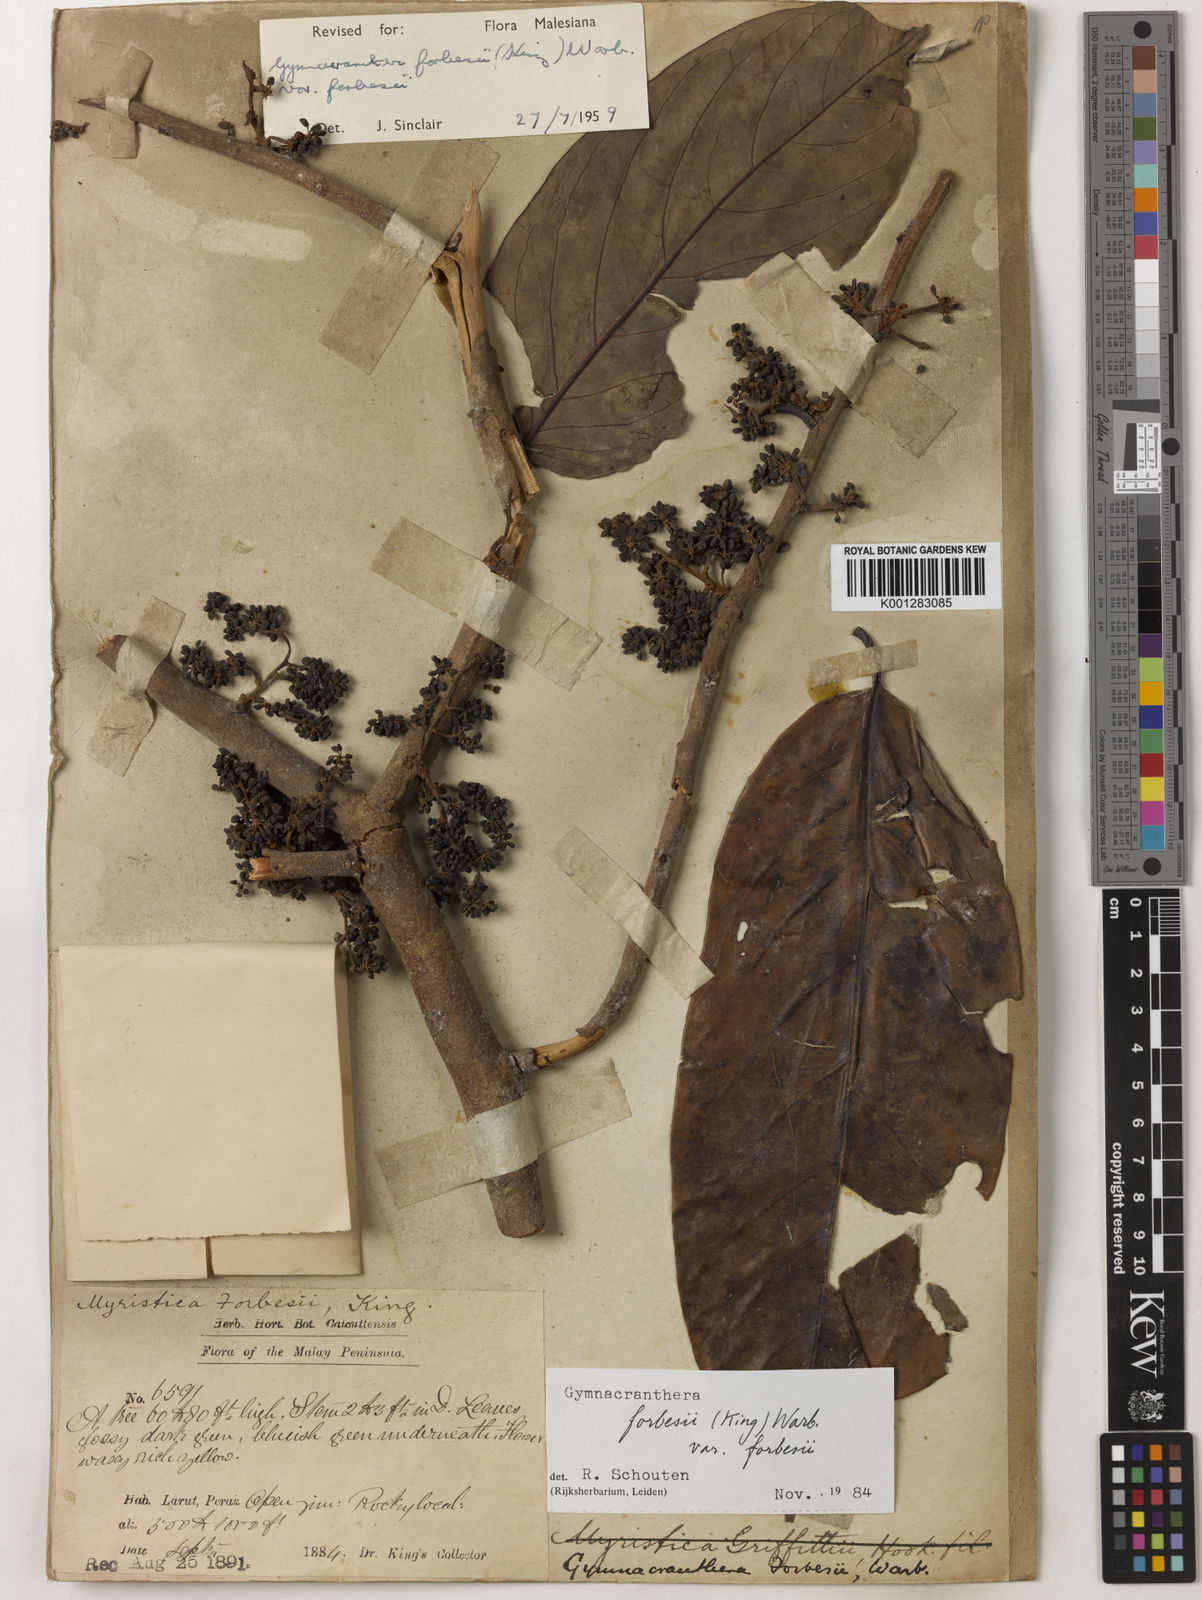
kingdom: Plantae
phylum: Tracheophyta
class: Magnoliopsida
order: Magnoliales
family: Myristicaceae
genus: Gymnacranthera
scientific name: Gymnacranthera forbesii
